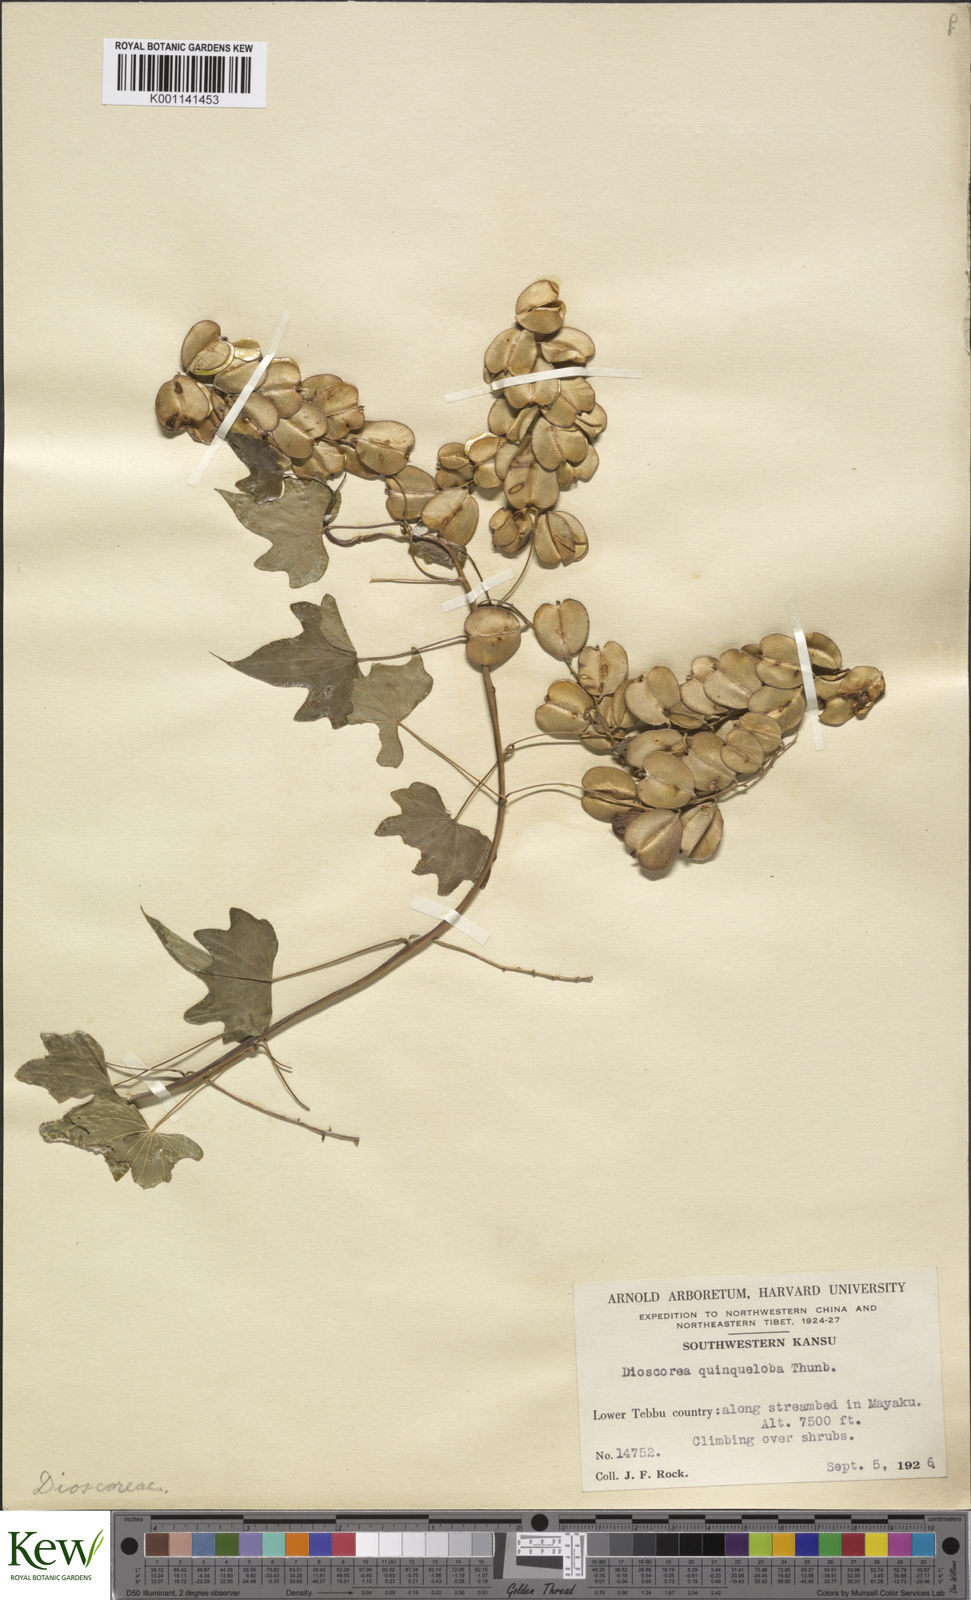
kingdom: Plantae
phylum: Tracheophyta
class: Liliopsida
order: Dioscoreales
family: Dioscoreaceae
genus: Dioscorea
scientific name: Dioscorea quinquelobata
